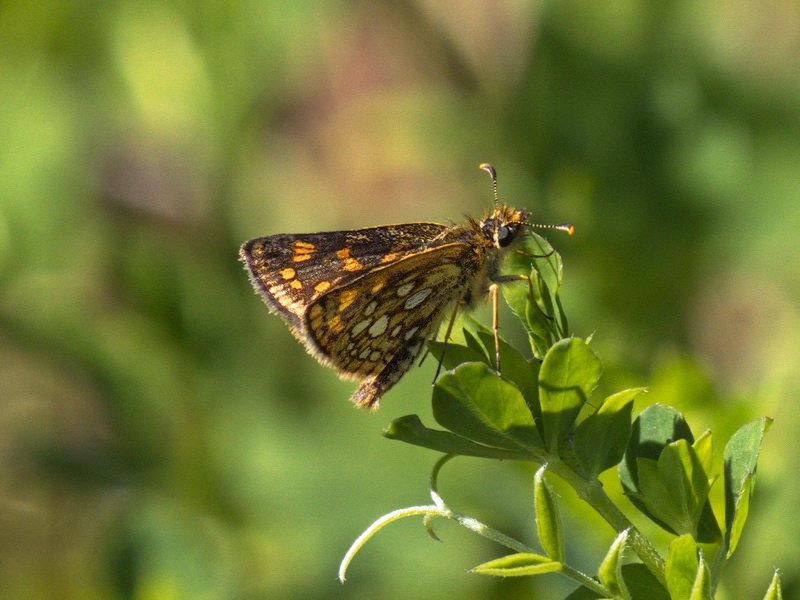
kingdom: Animalia
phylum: Arthropoda
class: Insecta
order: Lepidoptera
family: Hesperiidae
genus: Carterocephalus
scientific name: Carterocephalus palaemon
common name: Chequered Skipper
